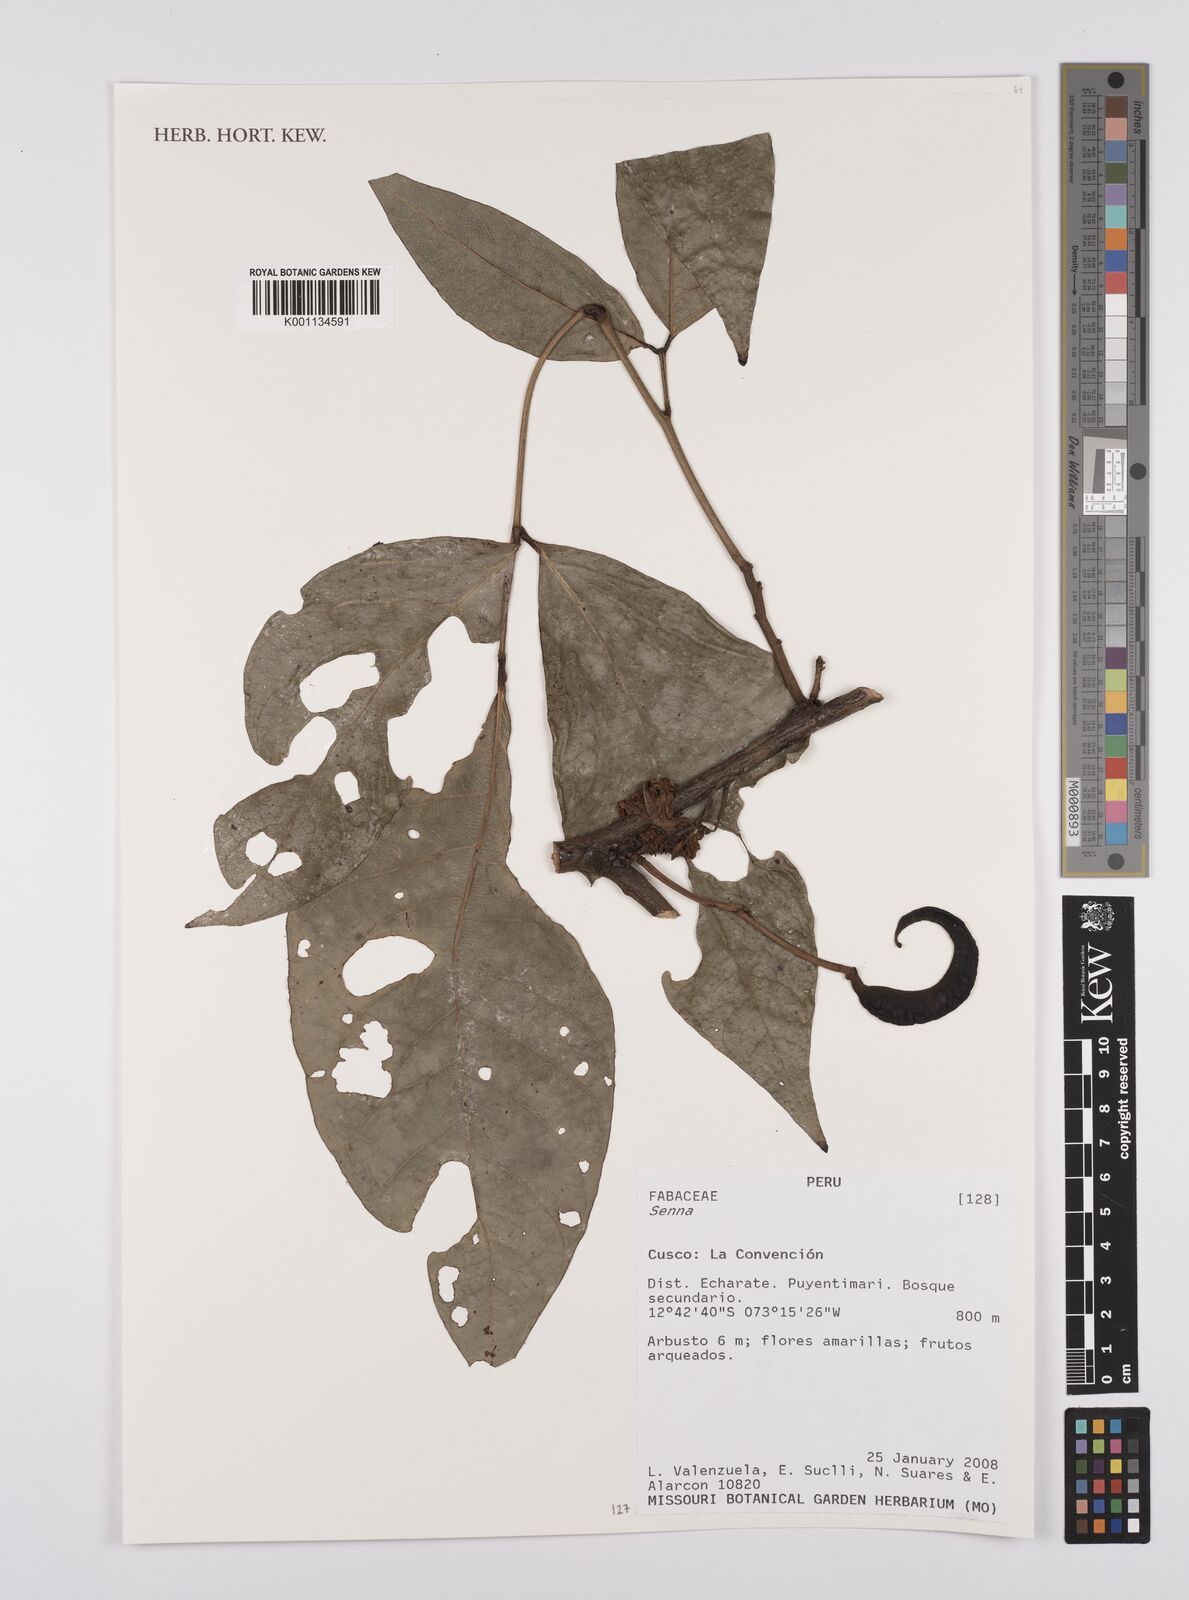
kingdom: Plantae
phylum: Tracheophyta
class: Magnoliopsida
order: Fabales
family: Fabaceae
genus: Senna
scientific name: Senna
